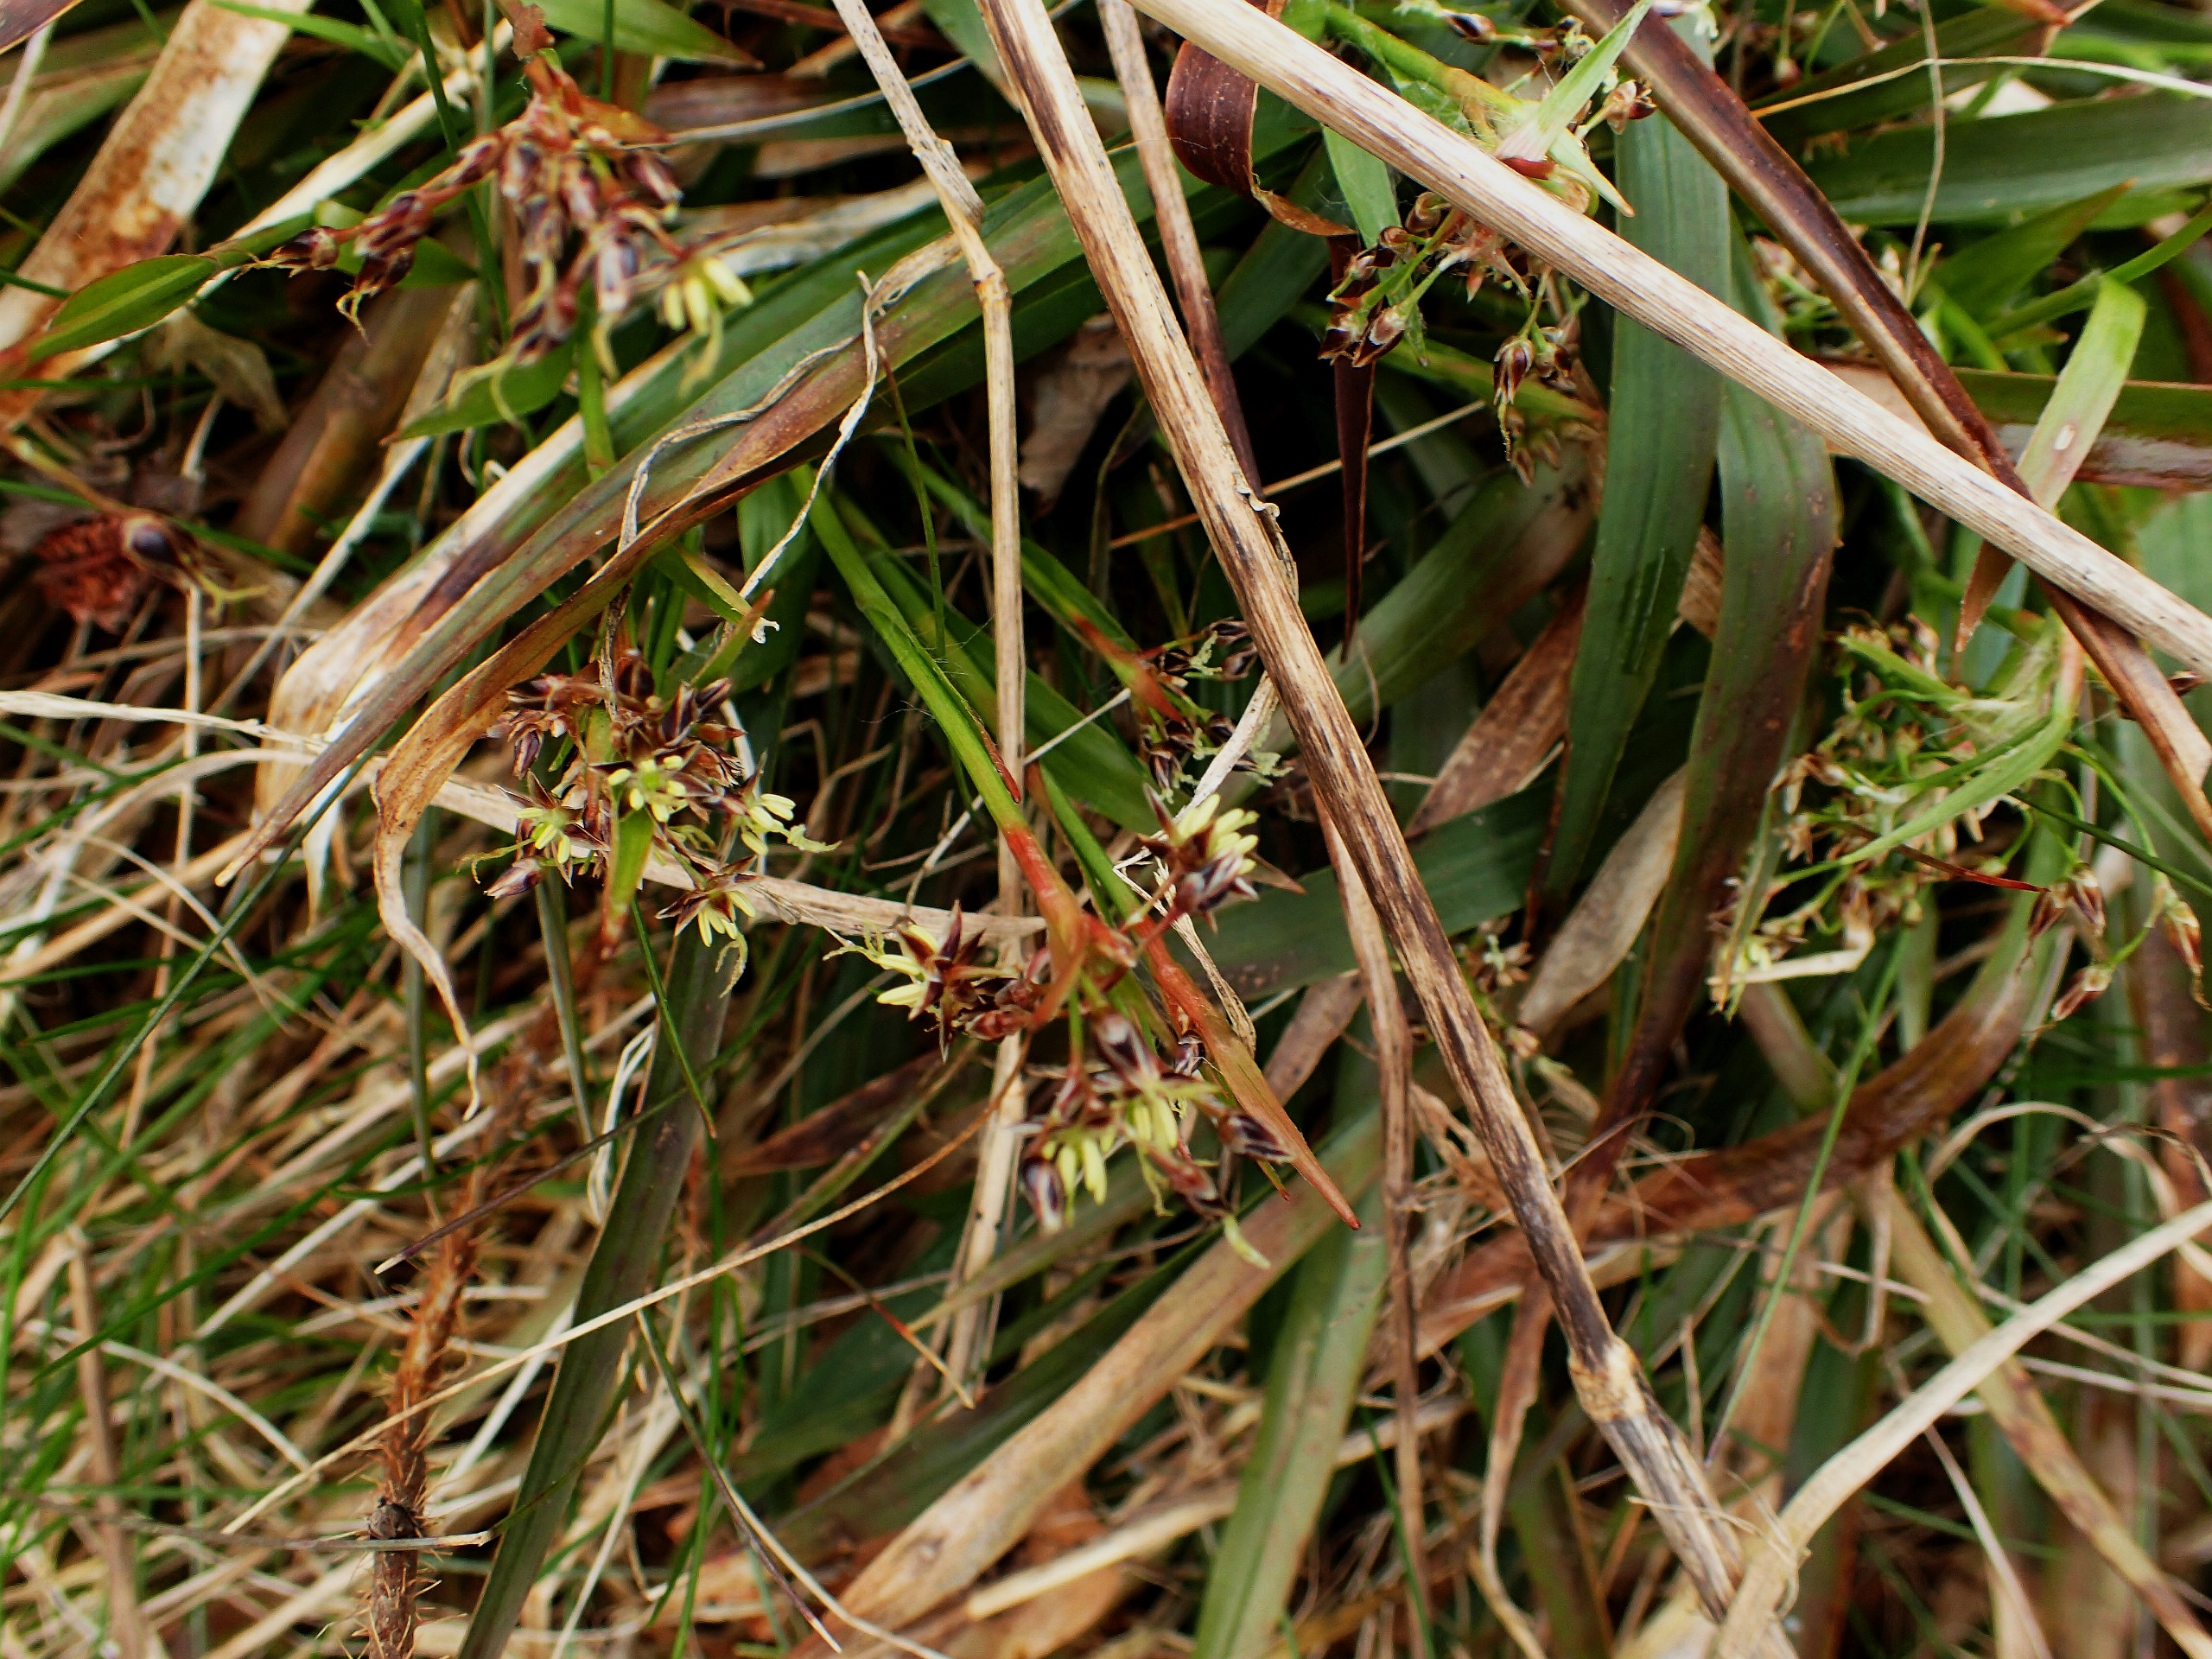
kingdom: Plantae
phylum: Tracheophyta
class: Liliopsida
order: Poales
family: Juncaceae
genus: Luzula
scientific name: Luzula pilosa
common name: Håret frytle
